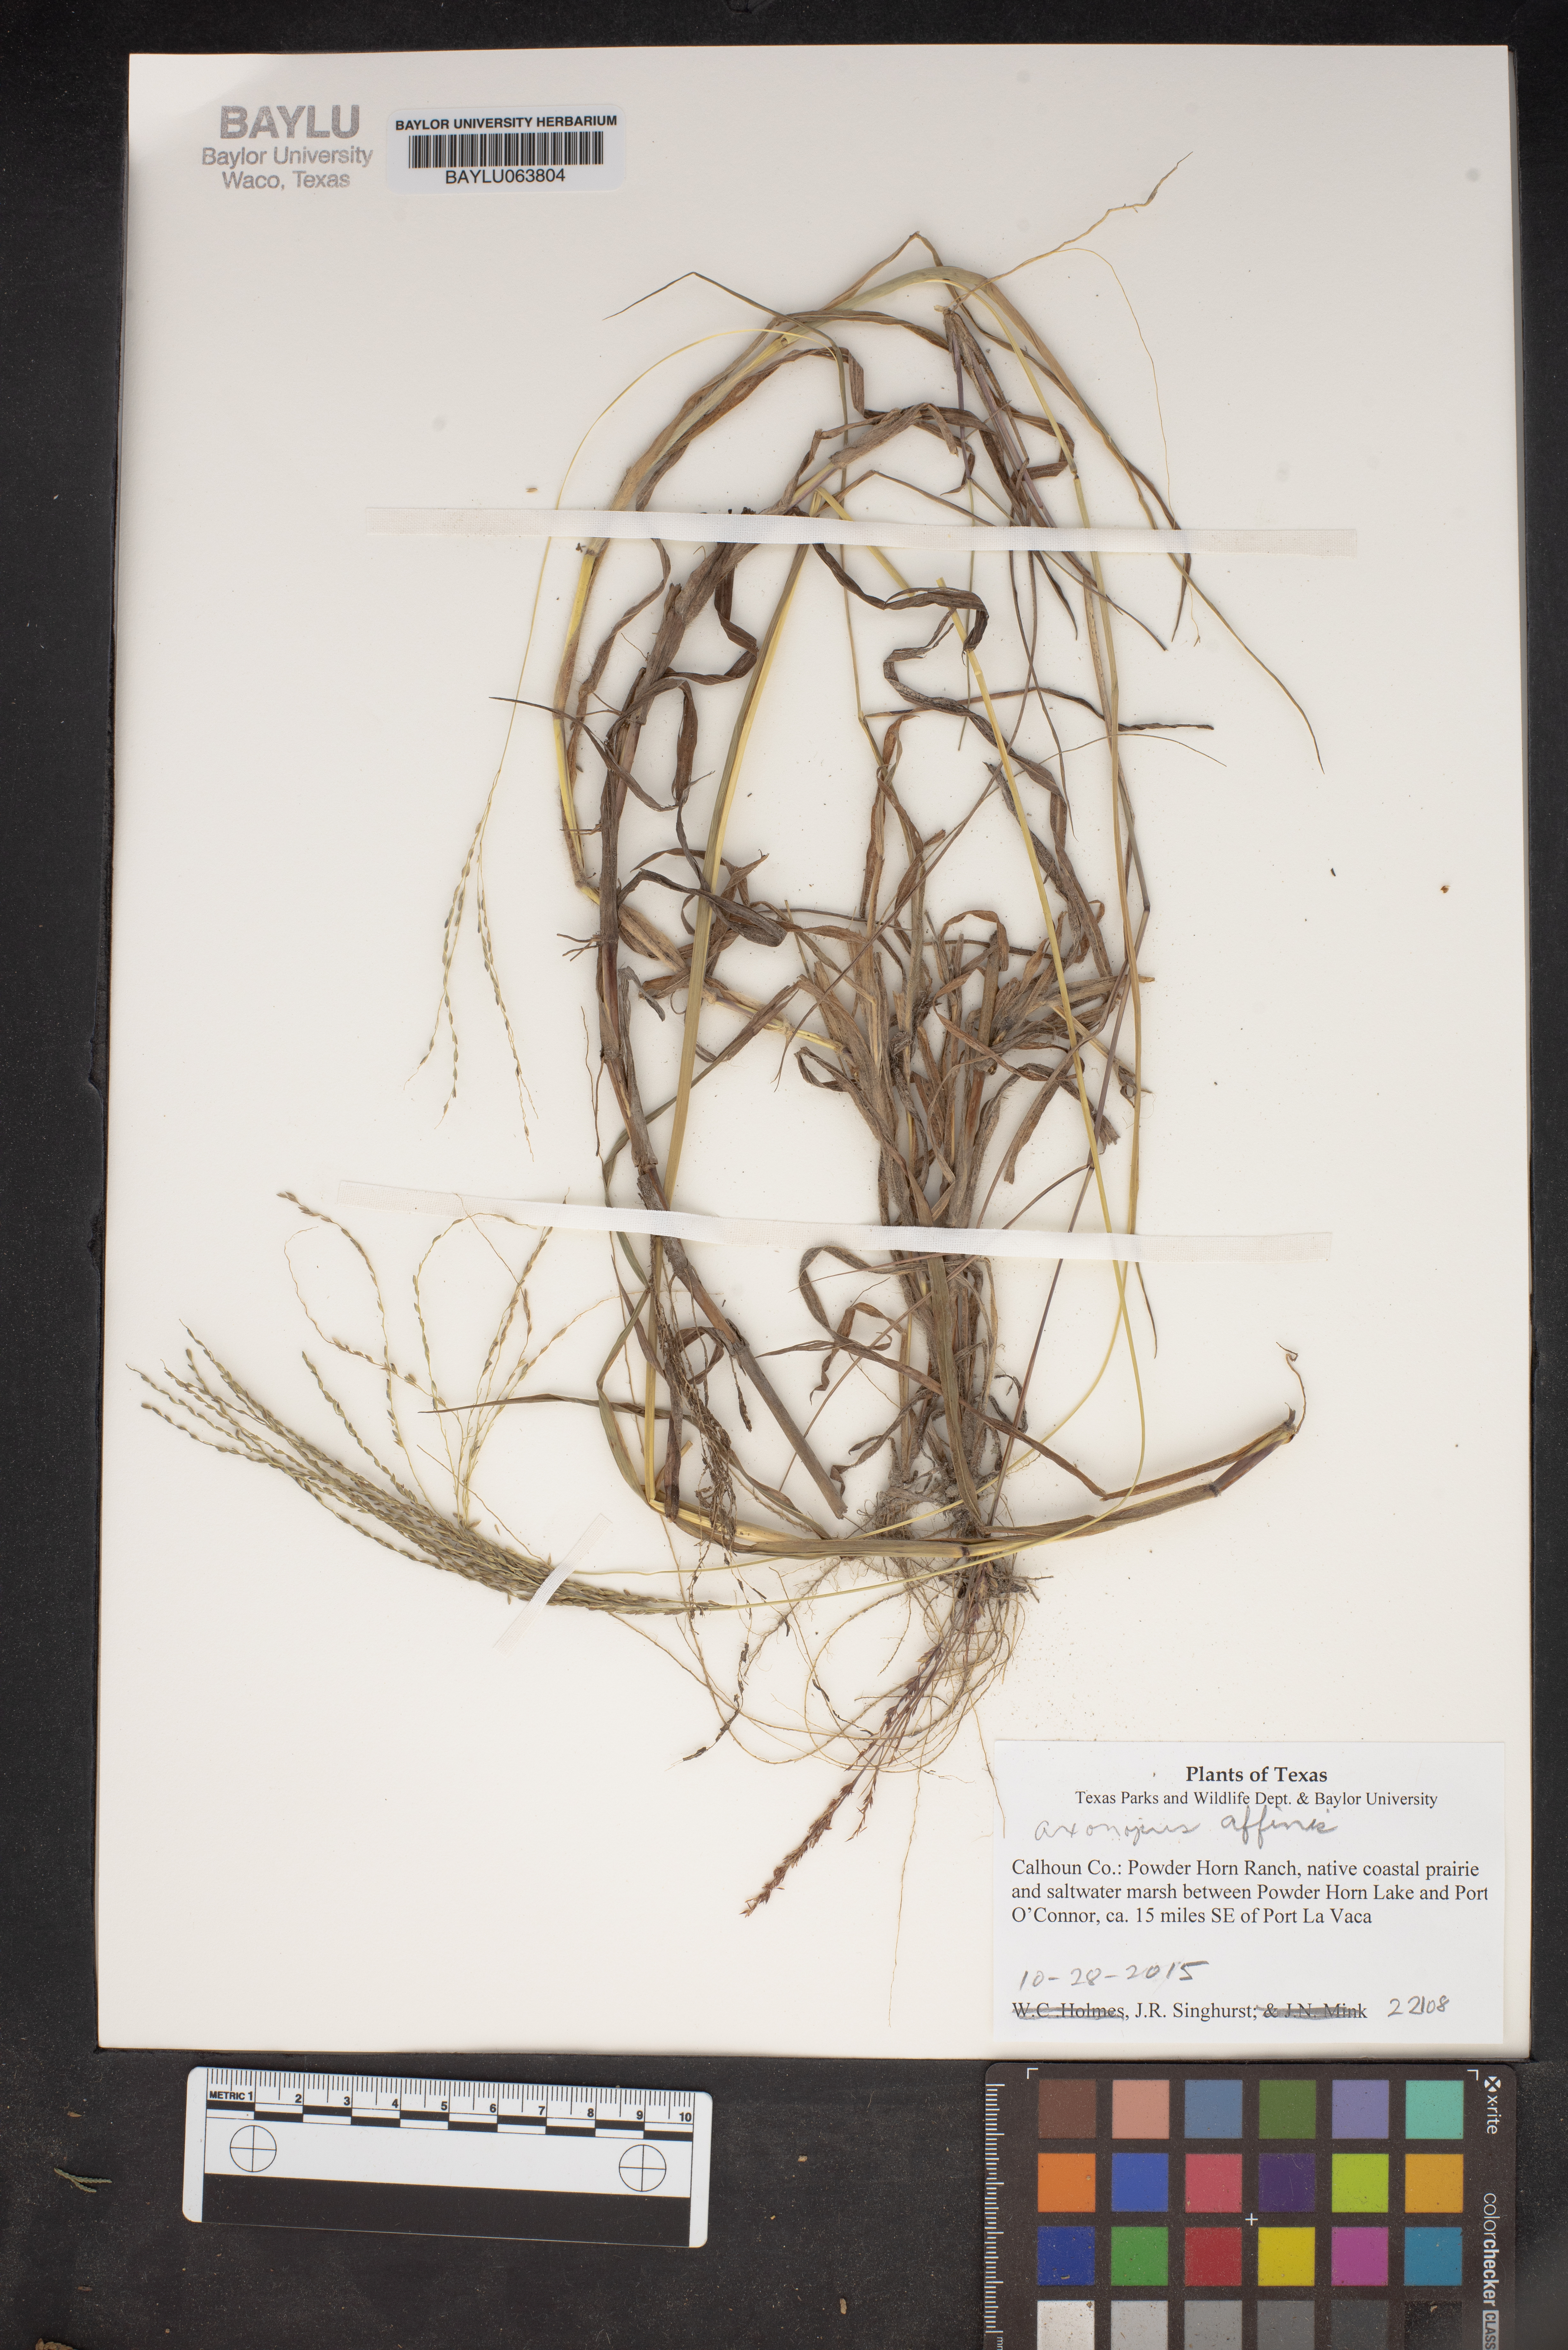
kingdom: Plantae
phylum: Tracheophyta
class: Liliopsida
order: Poales
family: Poaceae
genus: Axonopus
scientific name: Axonopus fissifolius
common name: Common carpetgrass
